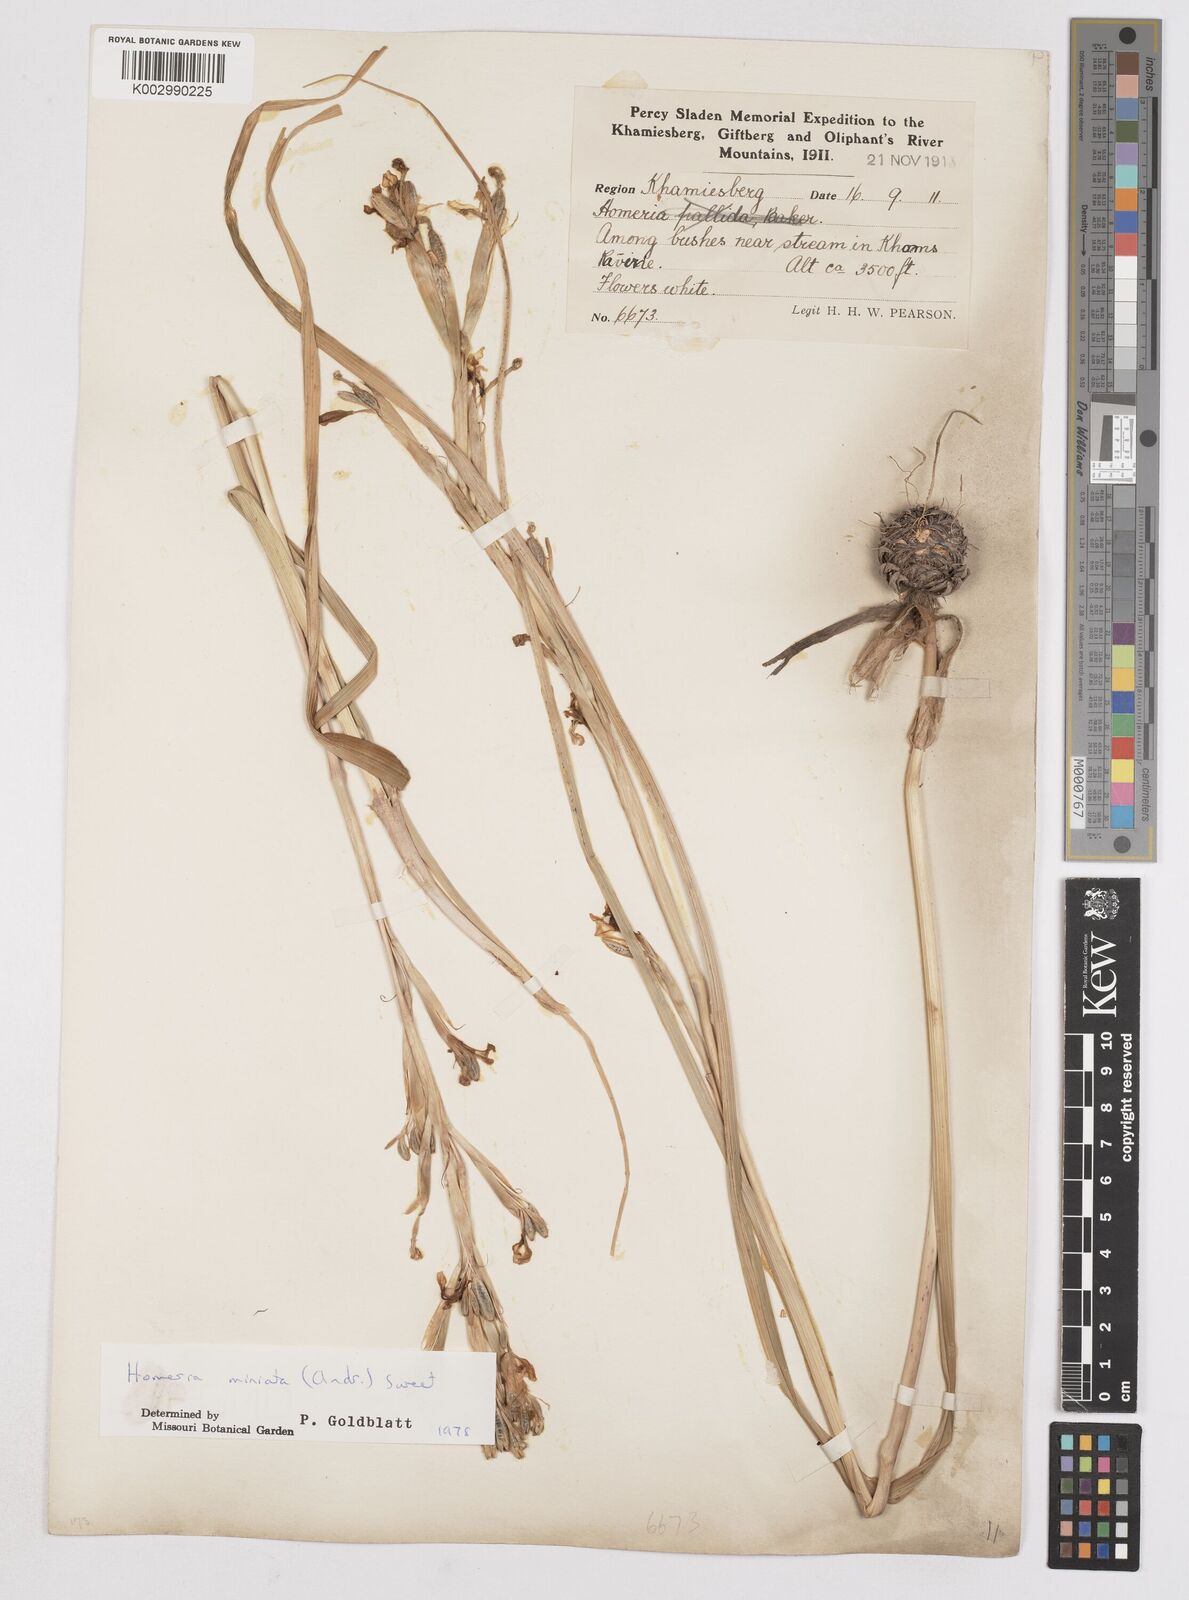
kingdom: Plantae
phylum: Tracheophyta
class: Liliopsida
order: Asparagales
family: Iridaceae
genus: Moraea
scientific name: Moraea miniata
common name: Two-leaf cape-tulip
